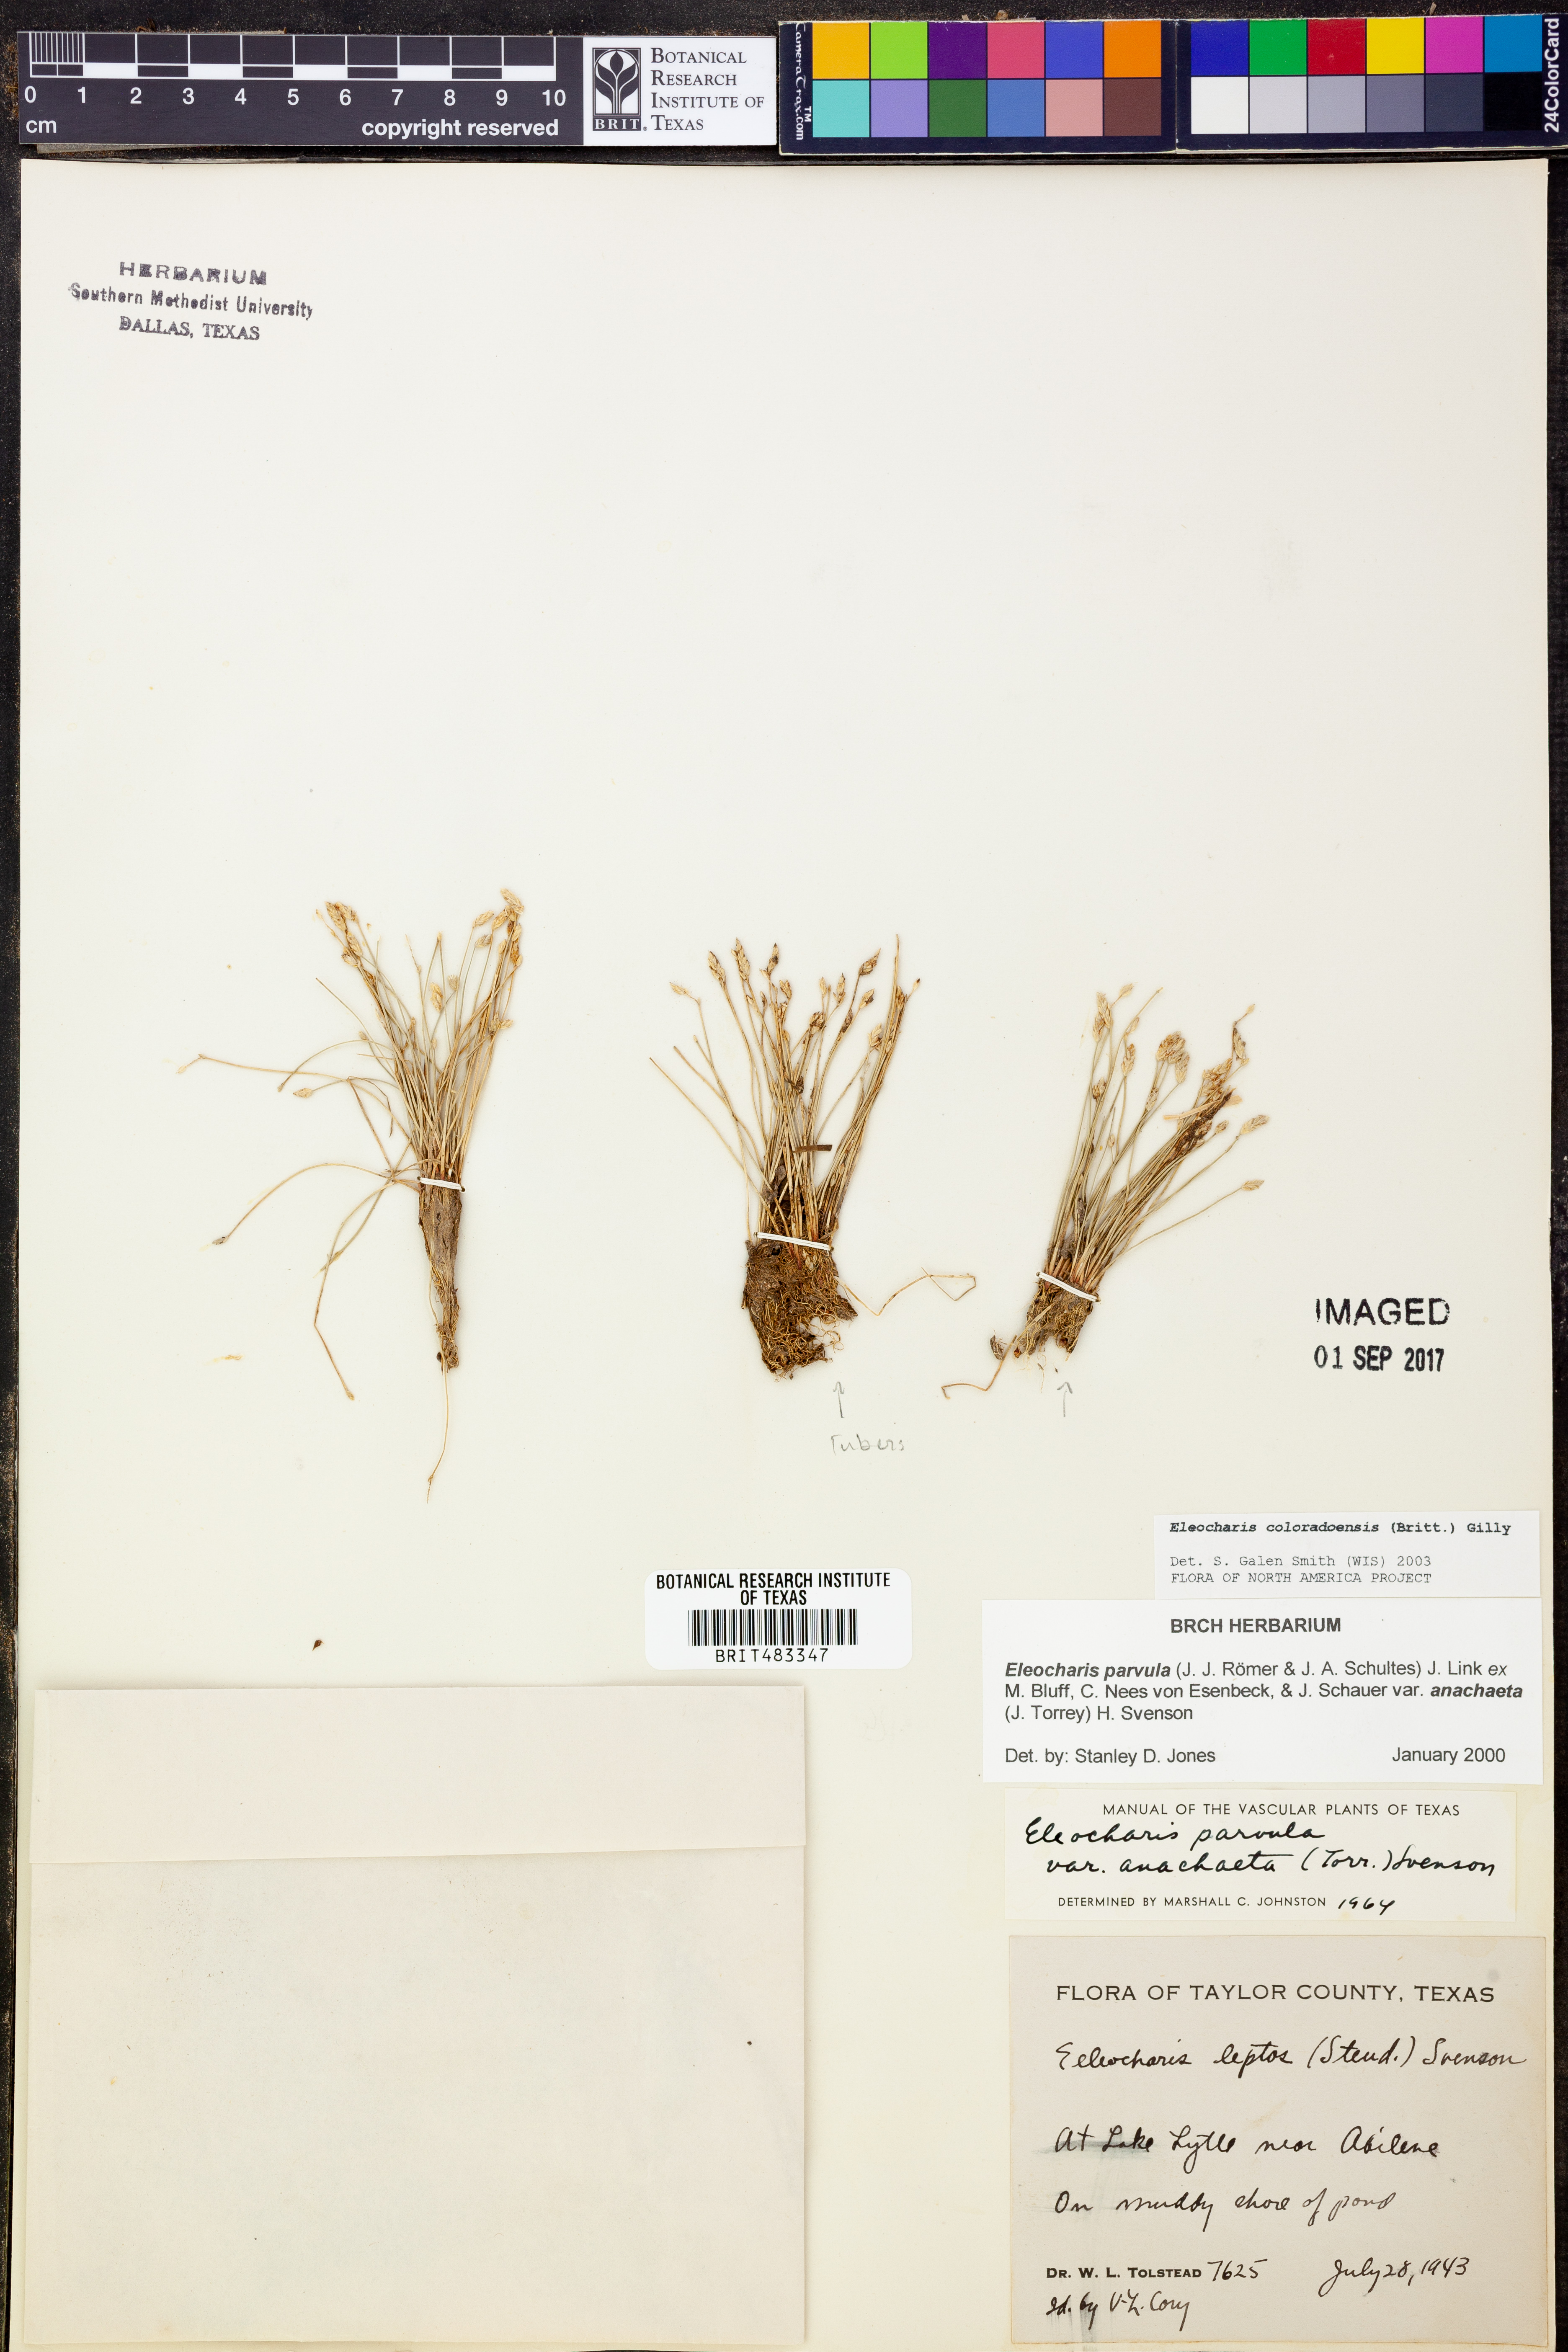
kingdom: Plantae
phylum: Tracheophyta
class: Liliopsida
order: Poales
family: Cyperaceae
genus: Eleocharis
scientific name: Eleocharis coloradoensis
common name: Colorado spikerush
